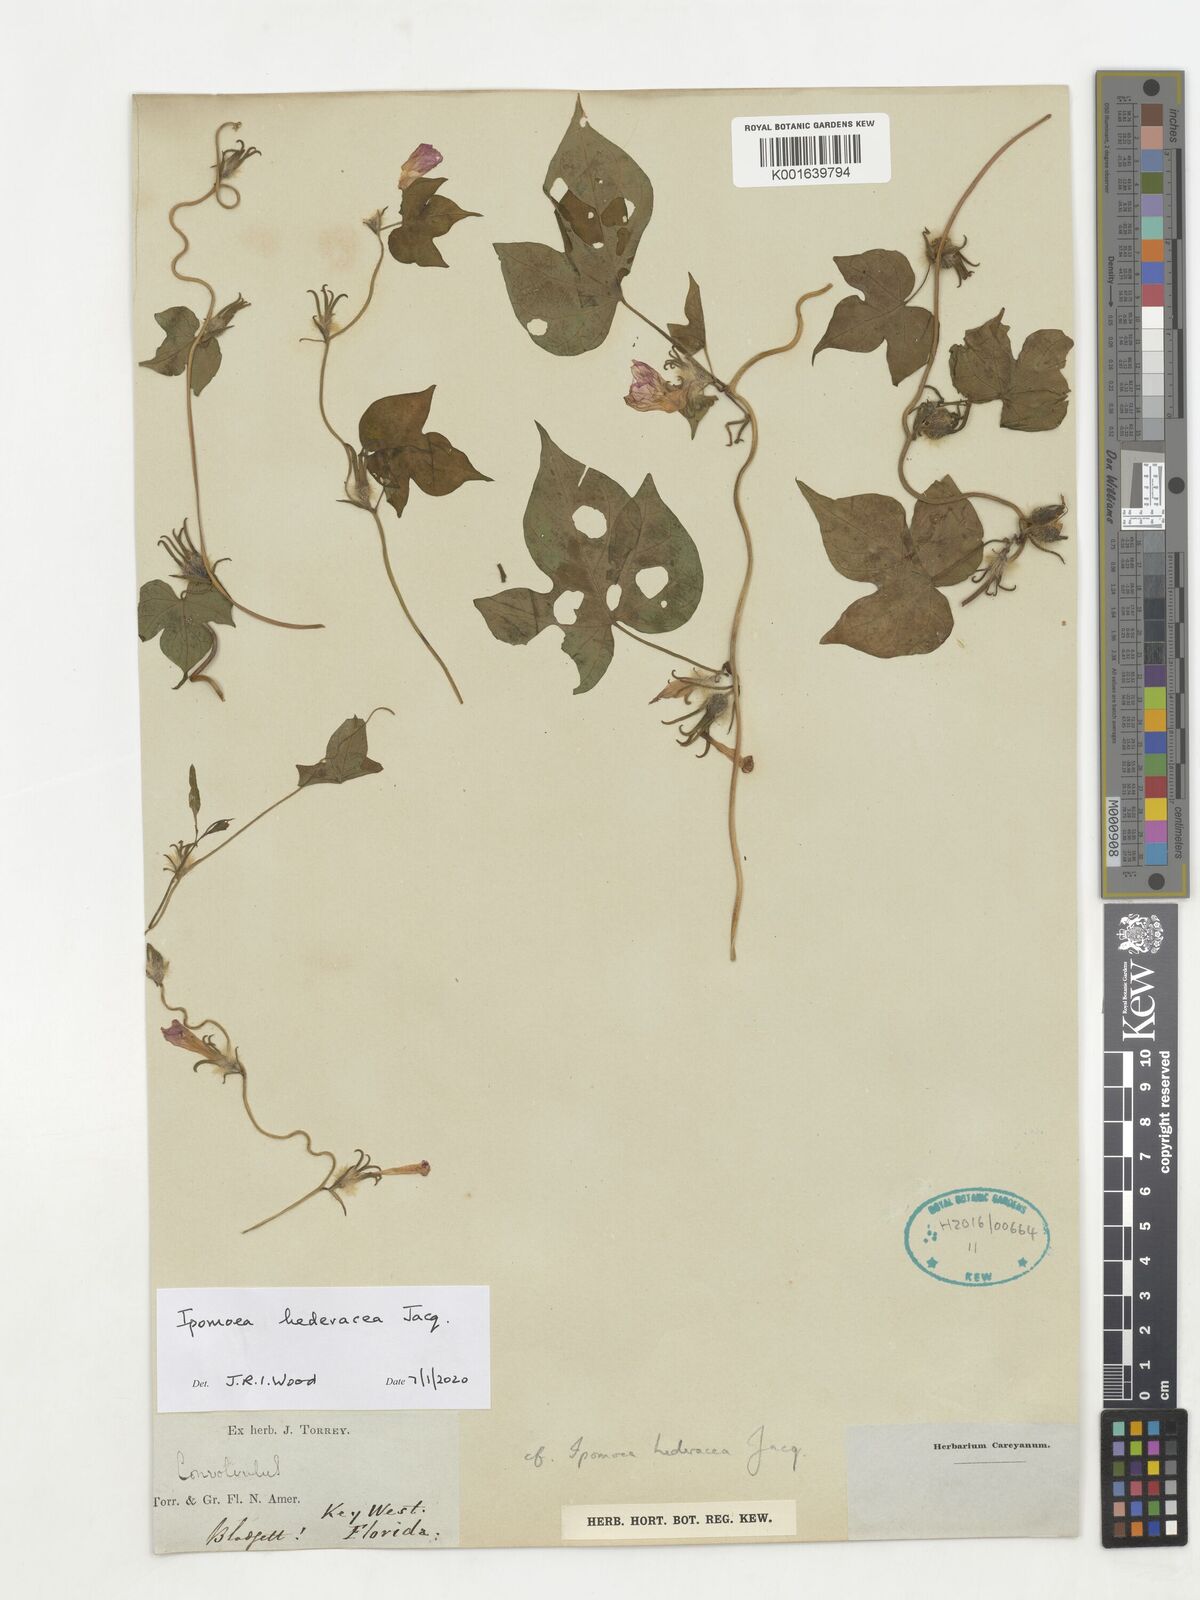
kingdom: Plantae
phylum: Tracheophyta
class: Magnoliopsida
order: Solanales
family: Convolvulaceae
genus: Ipomoea
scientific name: Ipomoea hederacea
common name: Ivy-leaved morning-glory
